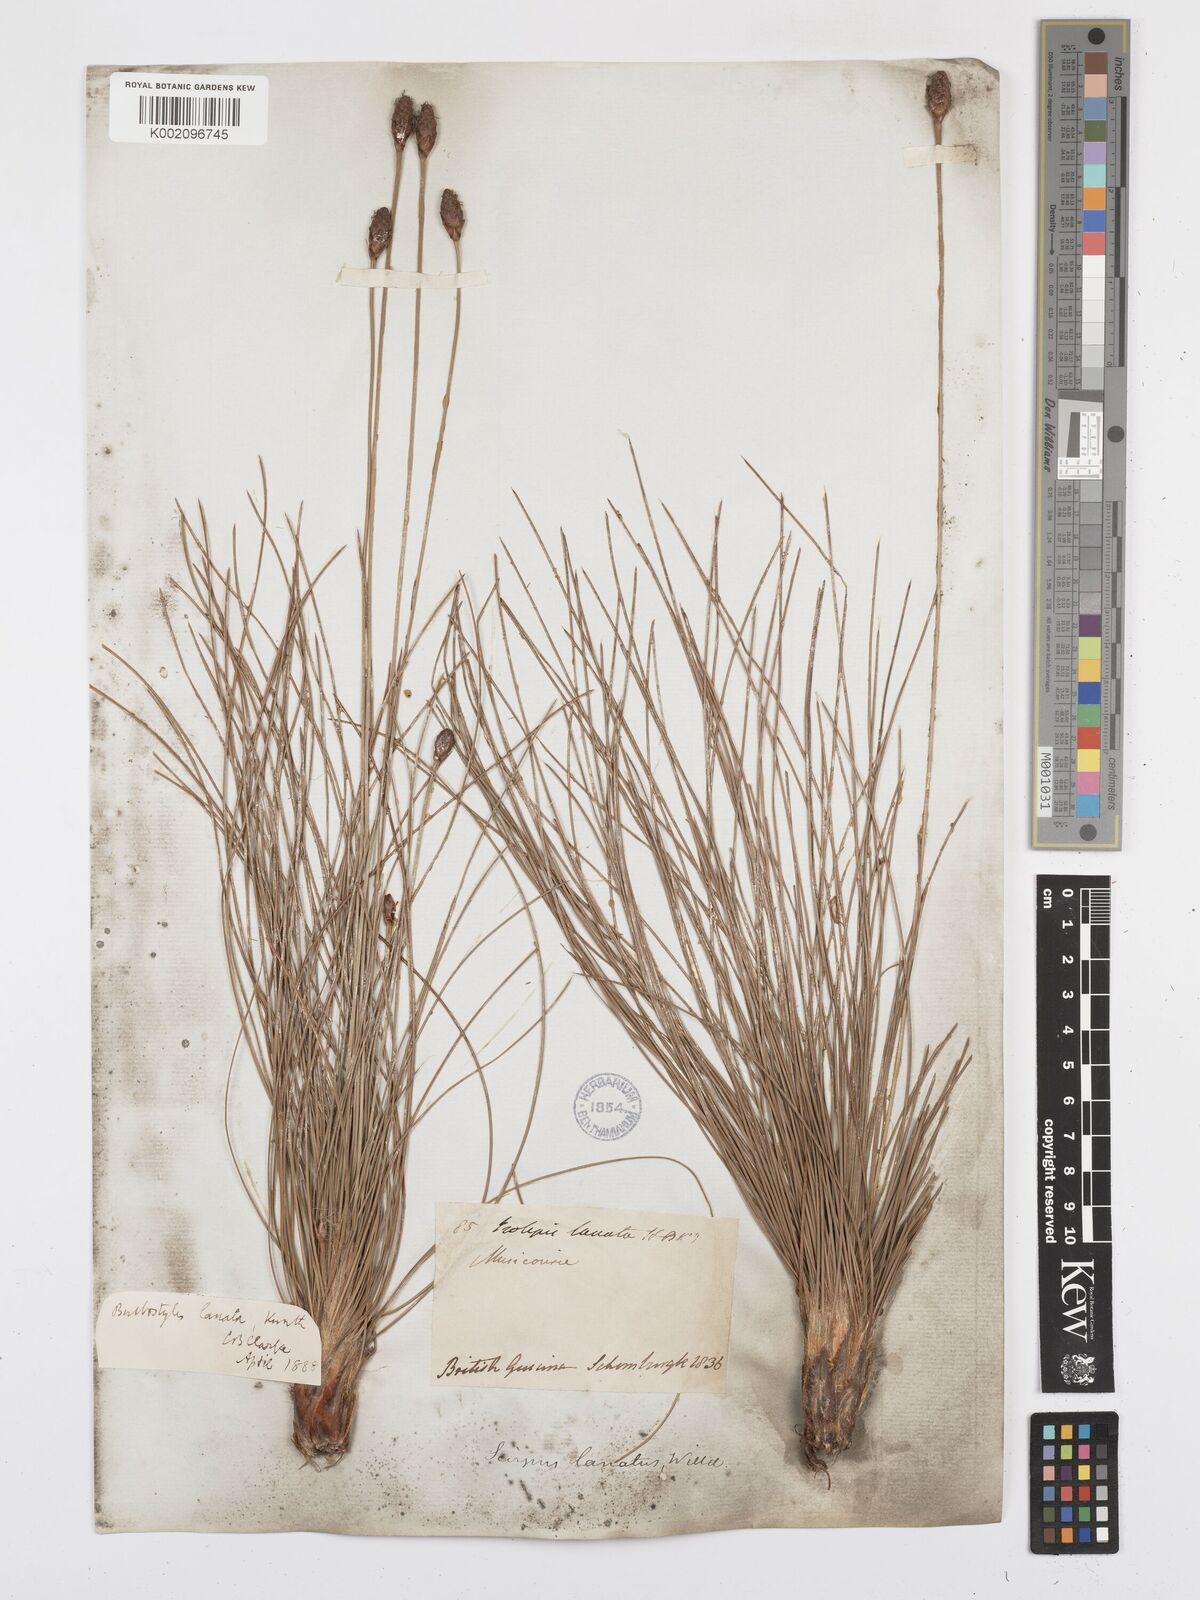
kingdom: Plantae
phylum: Tracheophyta
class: Liliopsida
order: Poales
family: Cyperaceae
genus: Bulbostylis
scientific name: Bulbostylis
